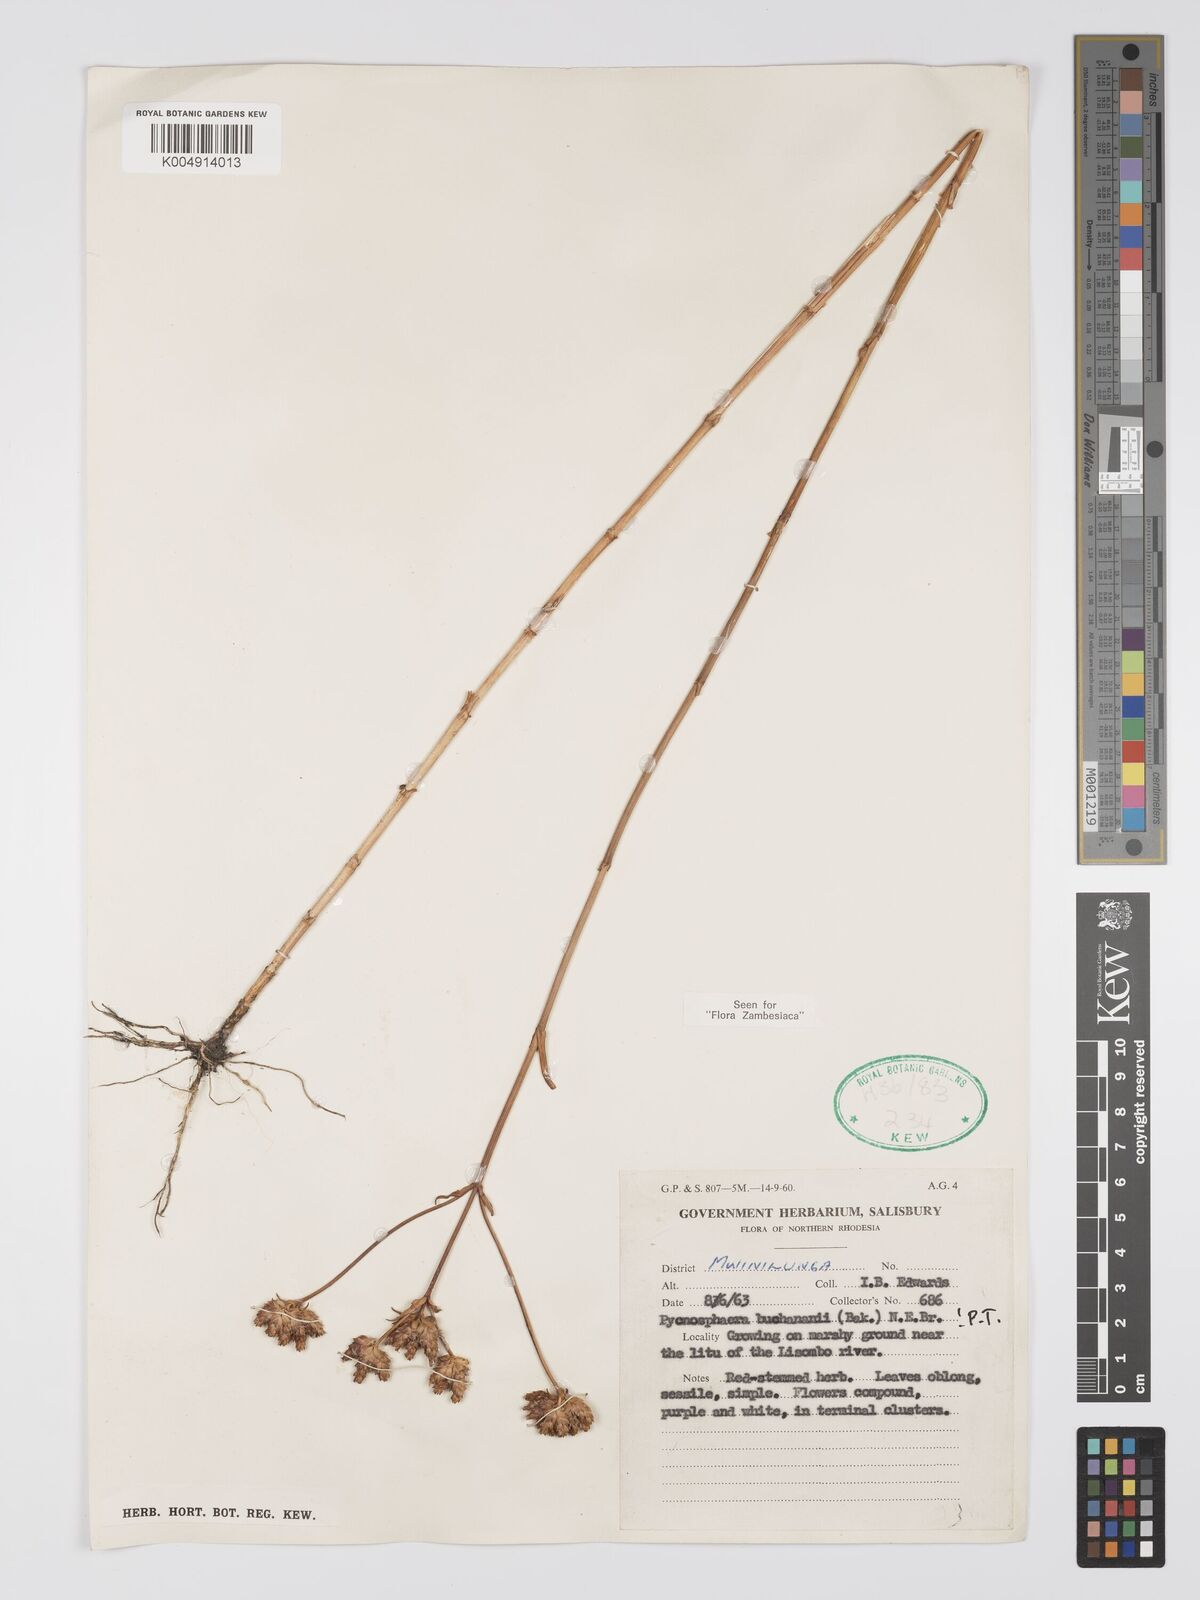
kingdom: Plantae
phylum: Tracheophyta
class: Magnoliopsida
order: Gentianales
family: Gentianaceae
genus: Pycnosphaera
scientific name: Pycnosphaera buchananii
